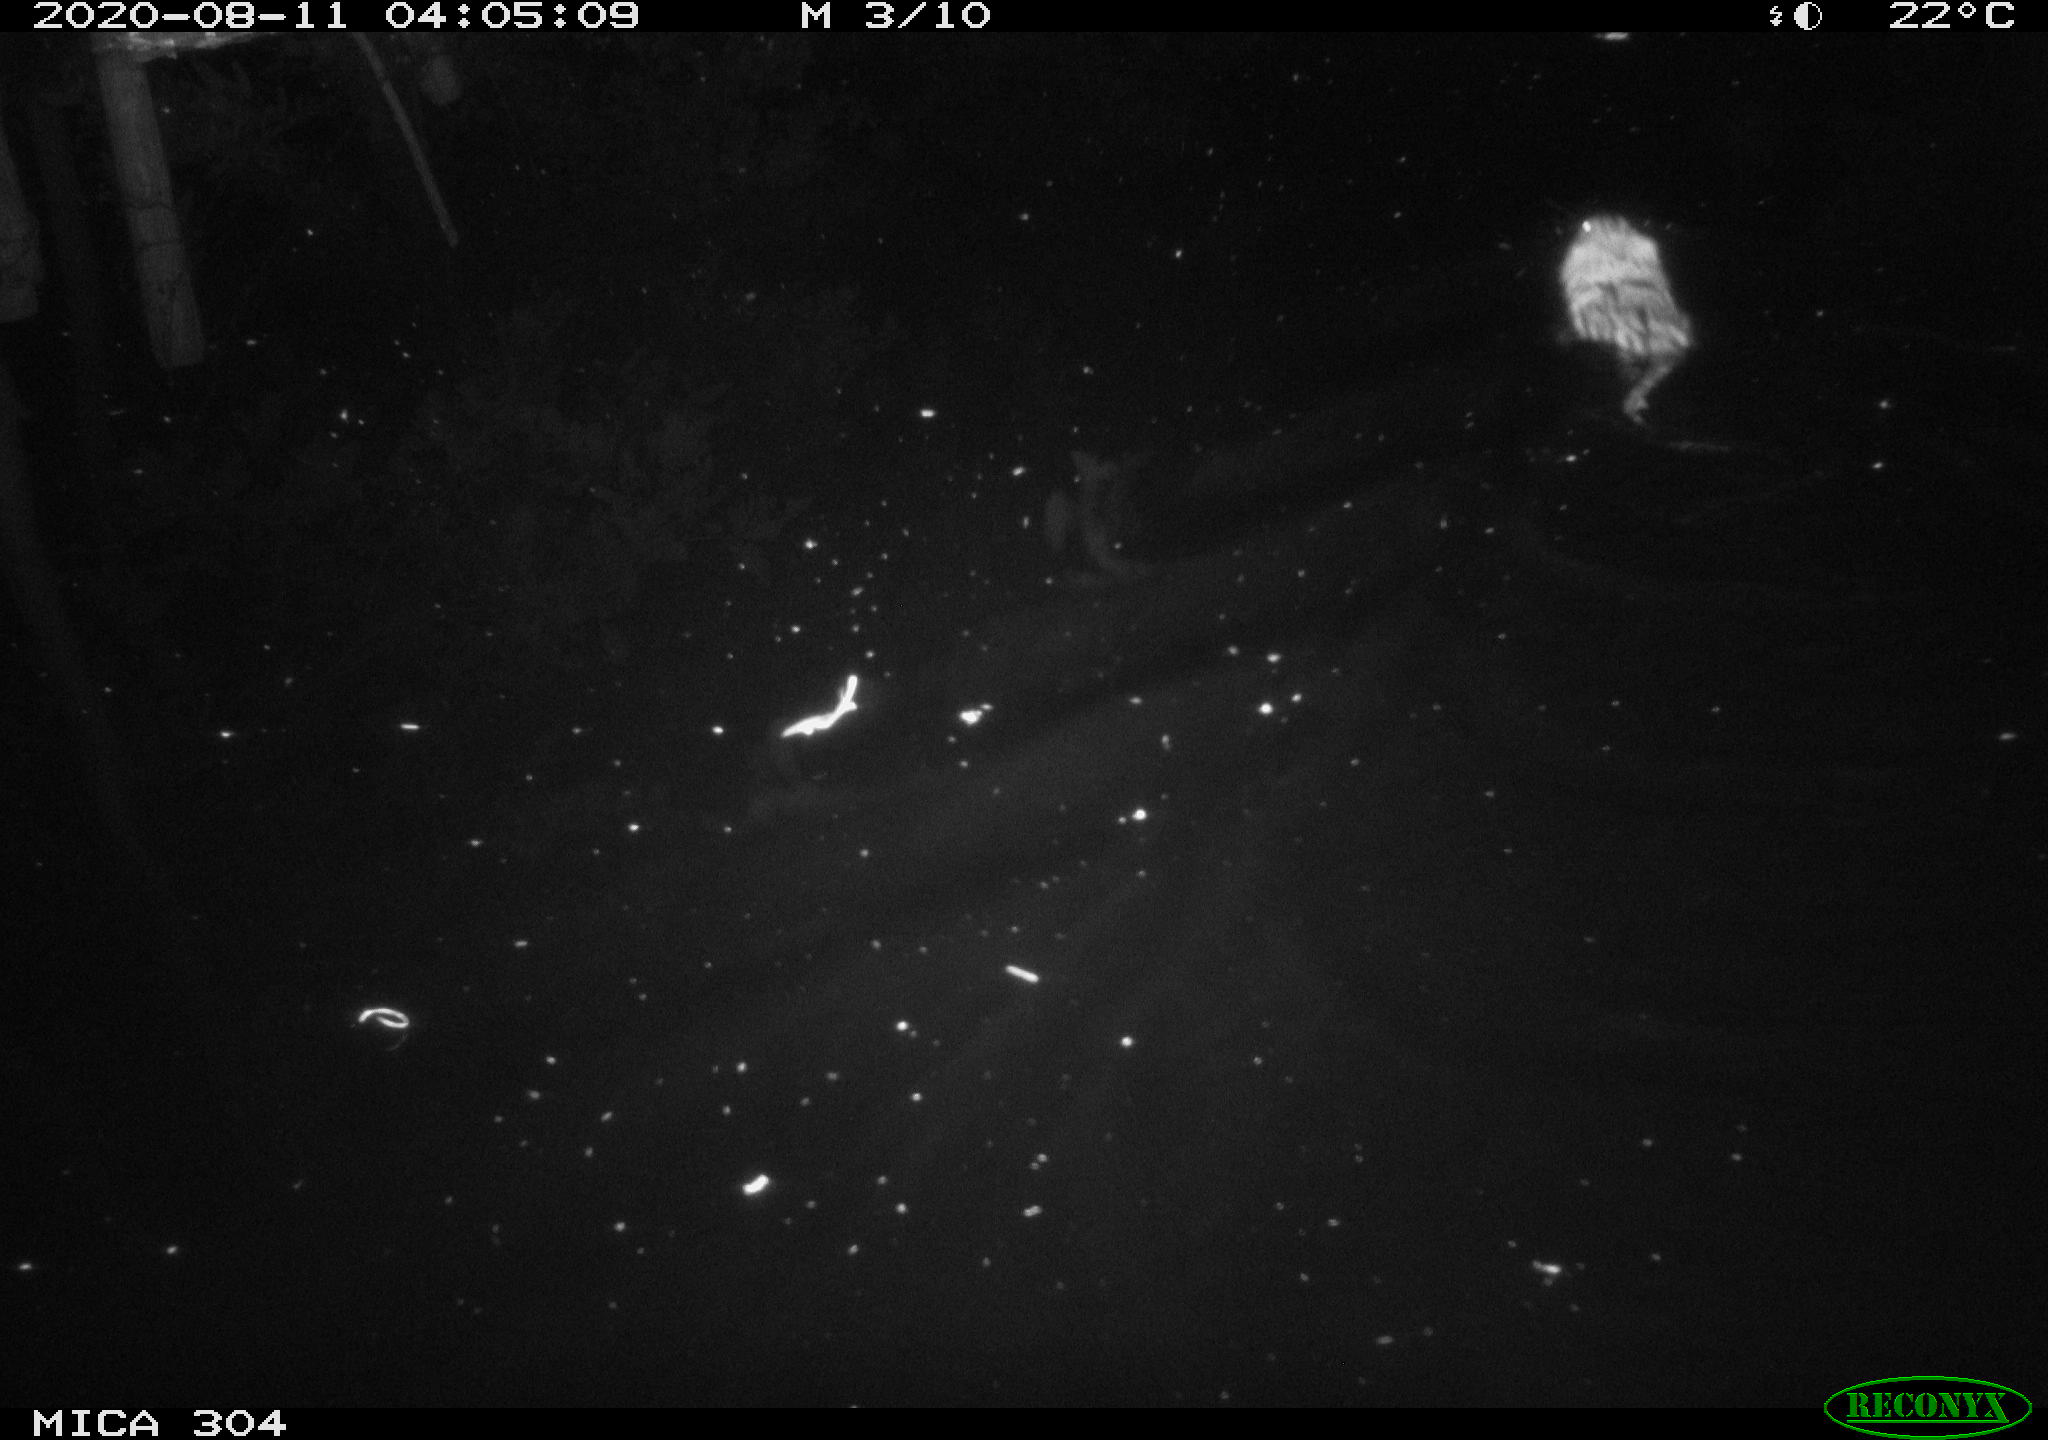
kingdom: Animalia
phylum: Chordata
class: Mammalia
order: Rodentia
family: Cricetidae
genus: Ondatra
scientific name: Ondatra zibethicus
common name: Muskrat
